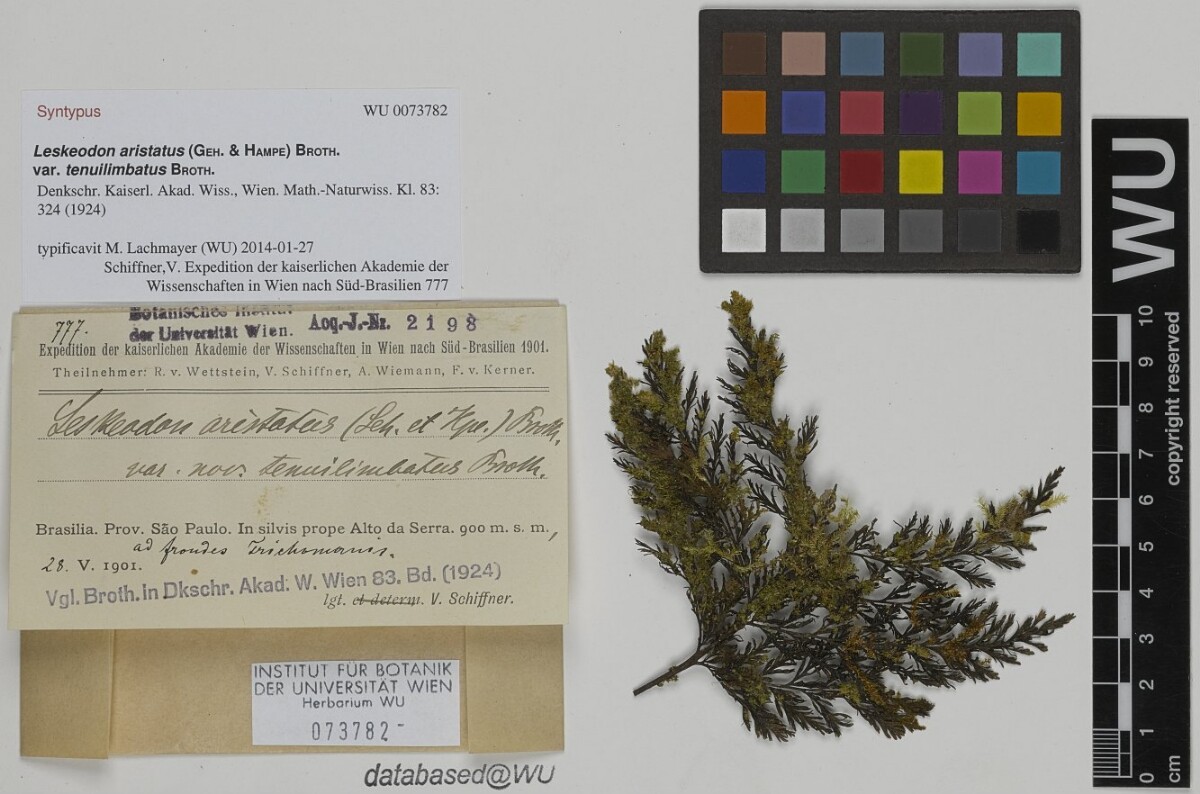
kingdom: Plantae
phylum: Bryophyta
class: Bryopsida
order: Hookeriales
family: Daltoniaceae
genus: Leskeodon
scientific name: Leskeodon aristatus
